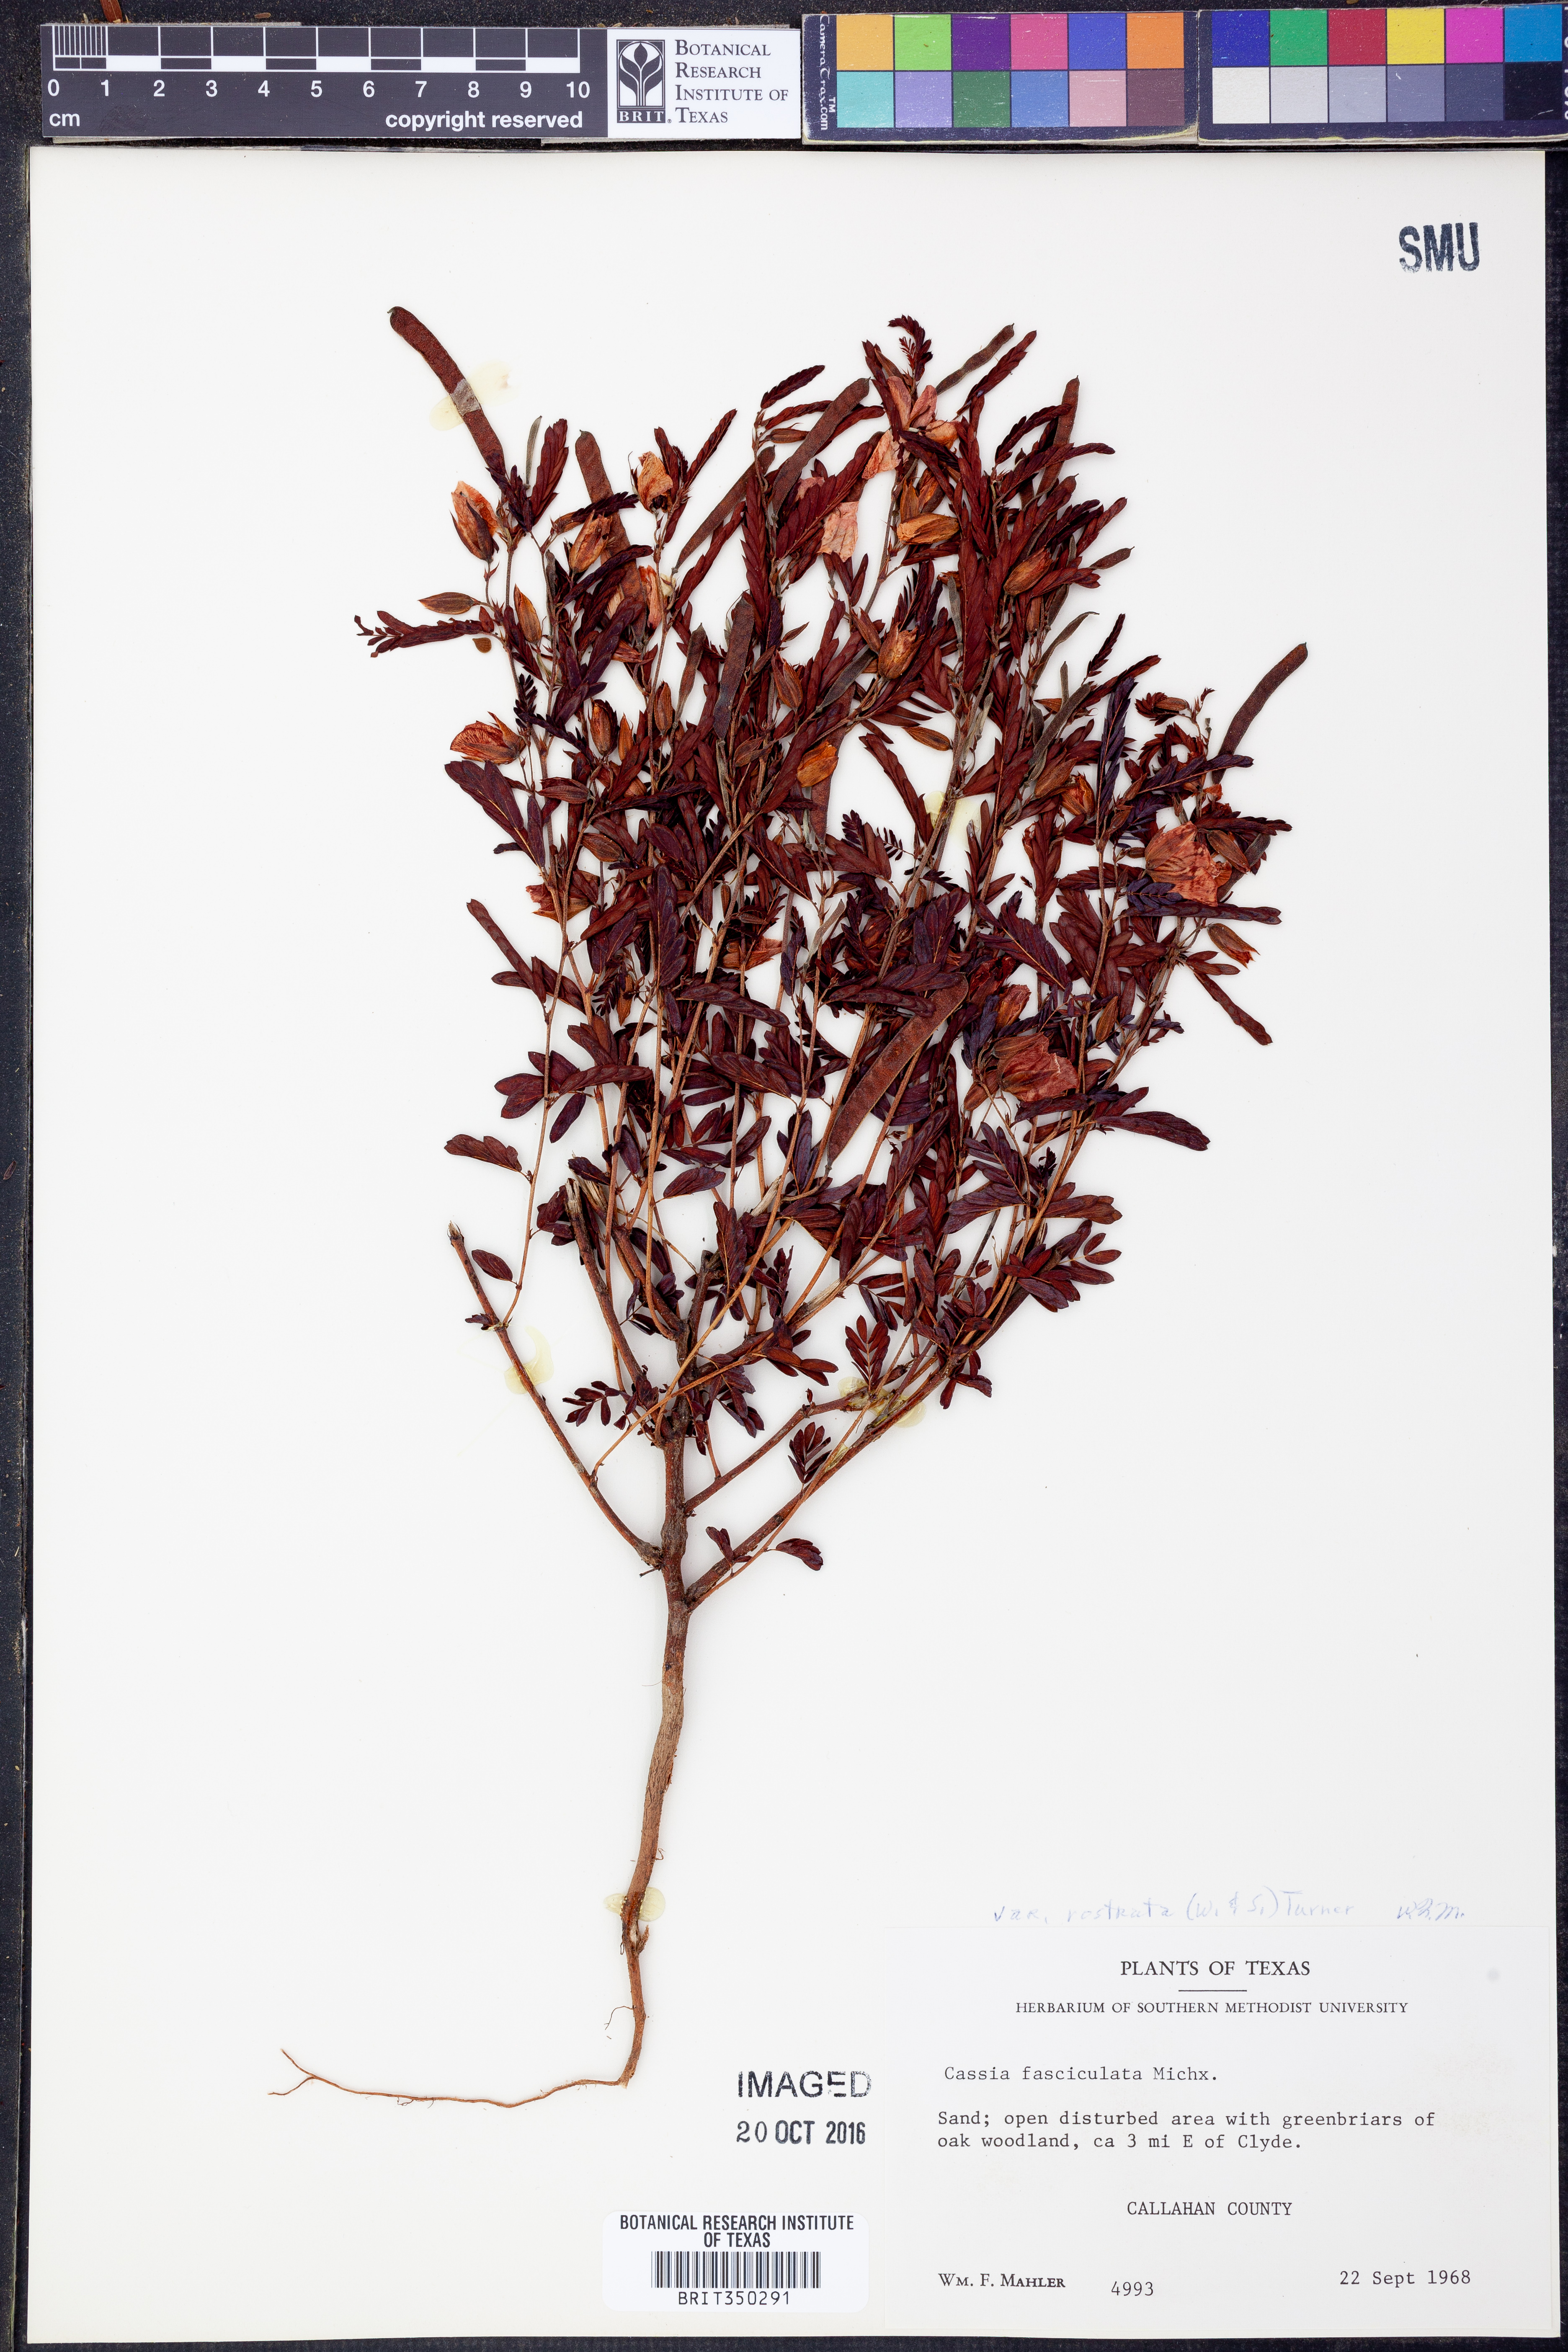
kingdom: Plantae
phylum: Tracheophyta
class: Magnoliopsida
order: Fabales
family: Fabaceae
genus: Chamaecrista
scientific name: Chamaecrista fasciculata
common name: Golden cassia
